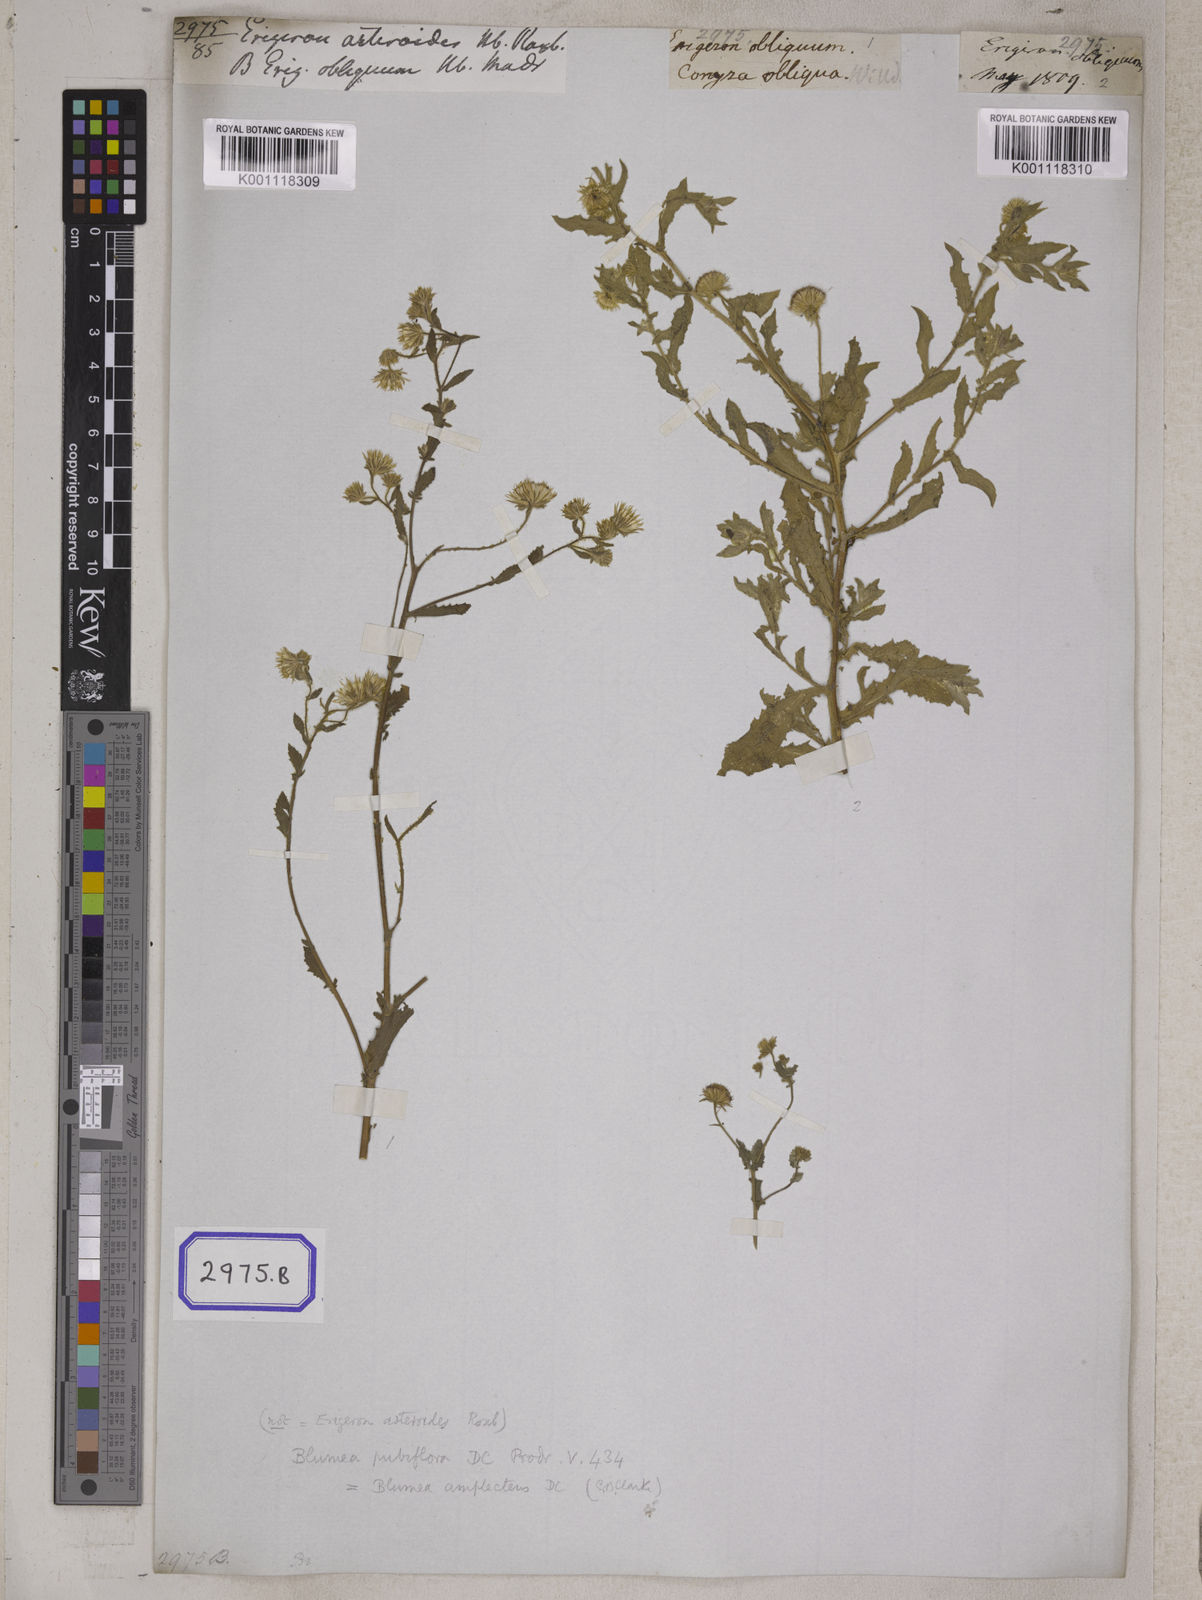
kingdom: Plantae
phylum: Tracheophyta
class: Magnoliopsida
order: Asterales
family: Asteraceae
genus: Erigeron
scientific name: Erigeron sublyratus
